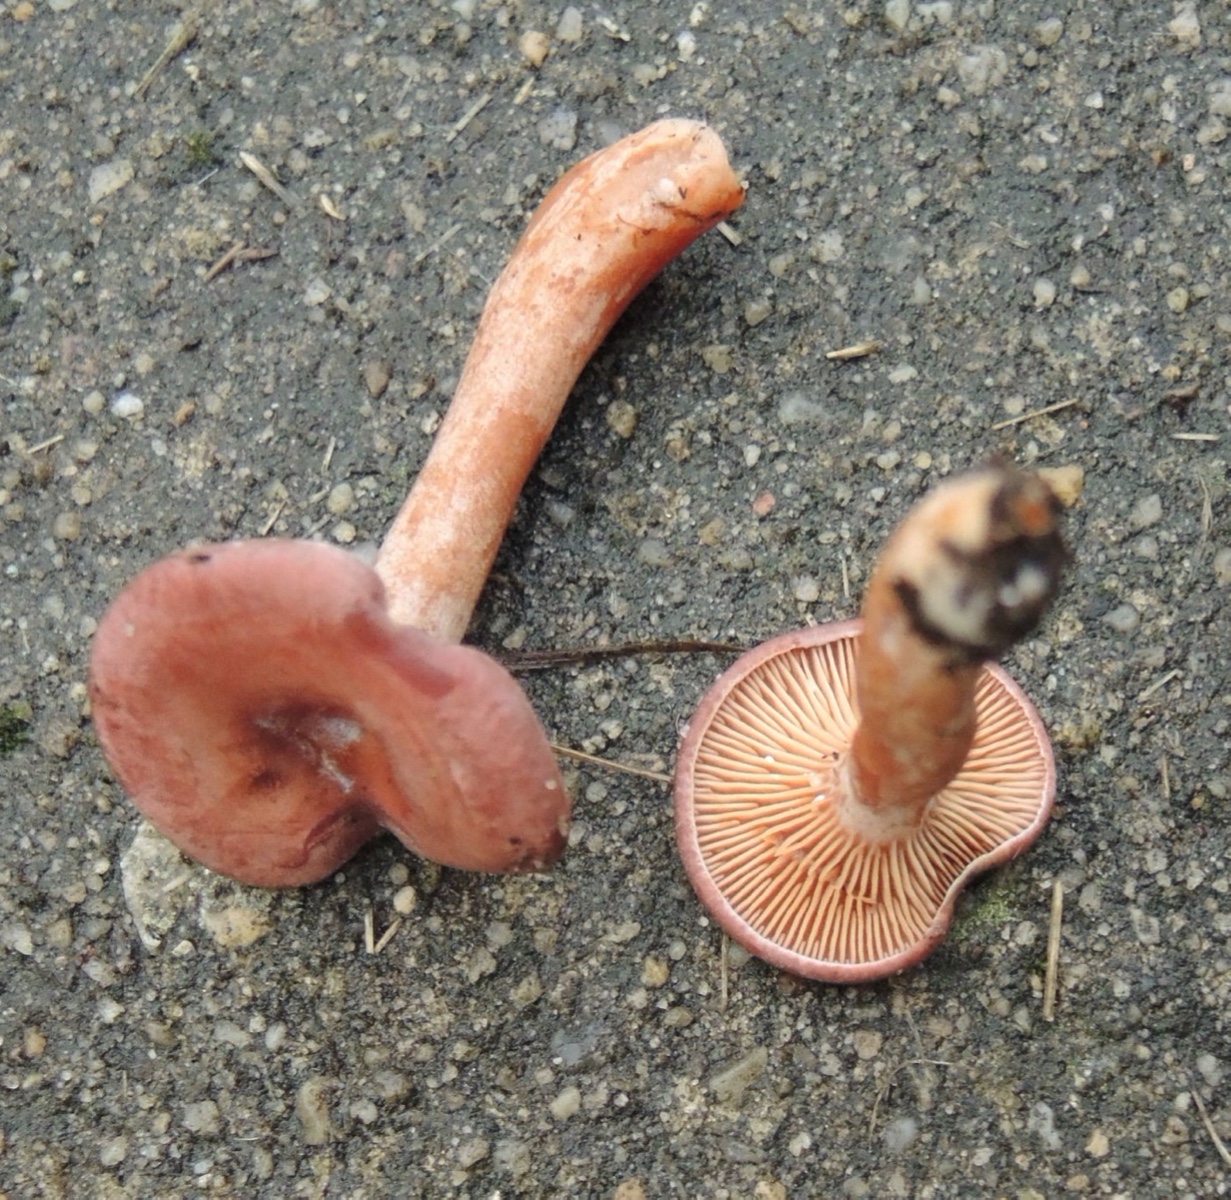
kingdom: Fungi
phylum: Basidiomycota
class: Agaricomycetes
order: Russulales
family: Russulaceae
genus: Lactarius
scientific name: Lactarius lilacinus
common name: lilla mælkehat
